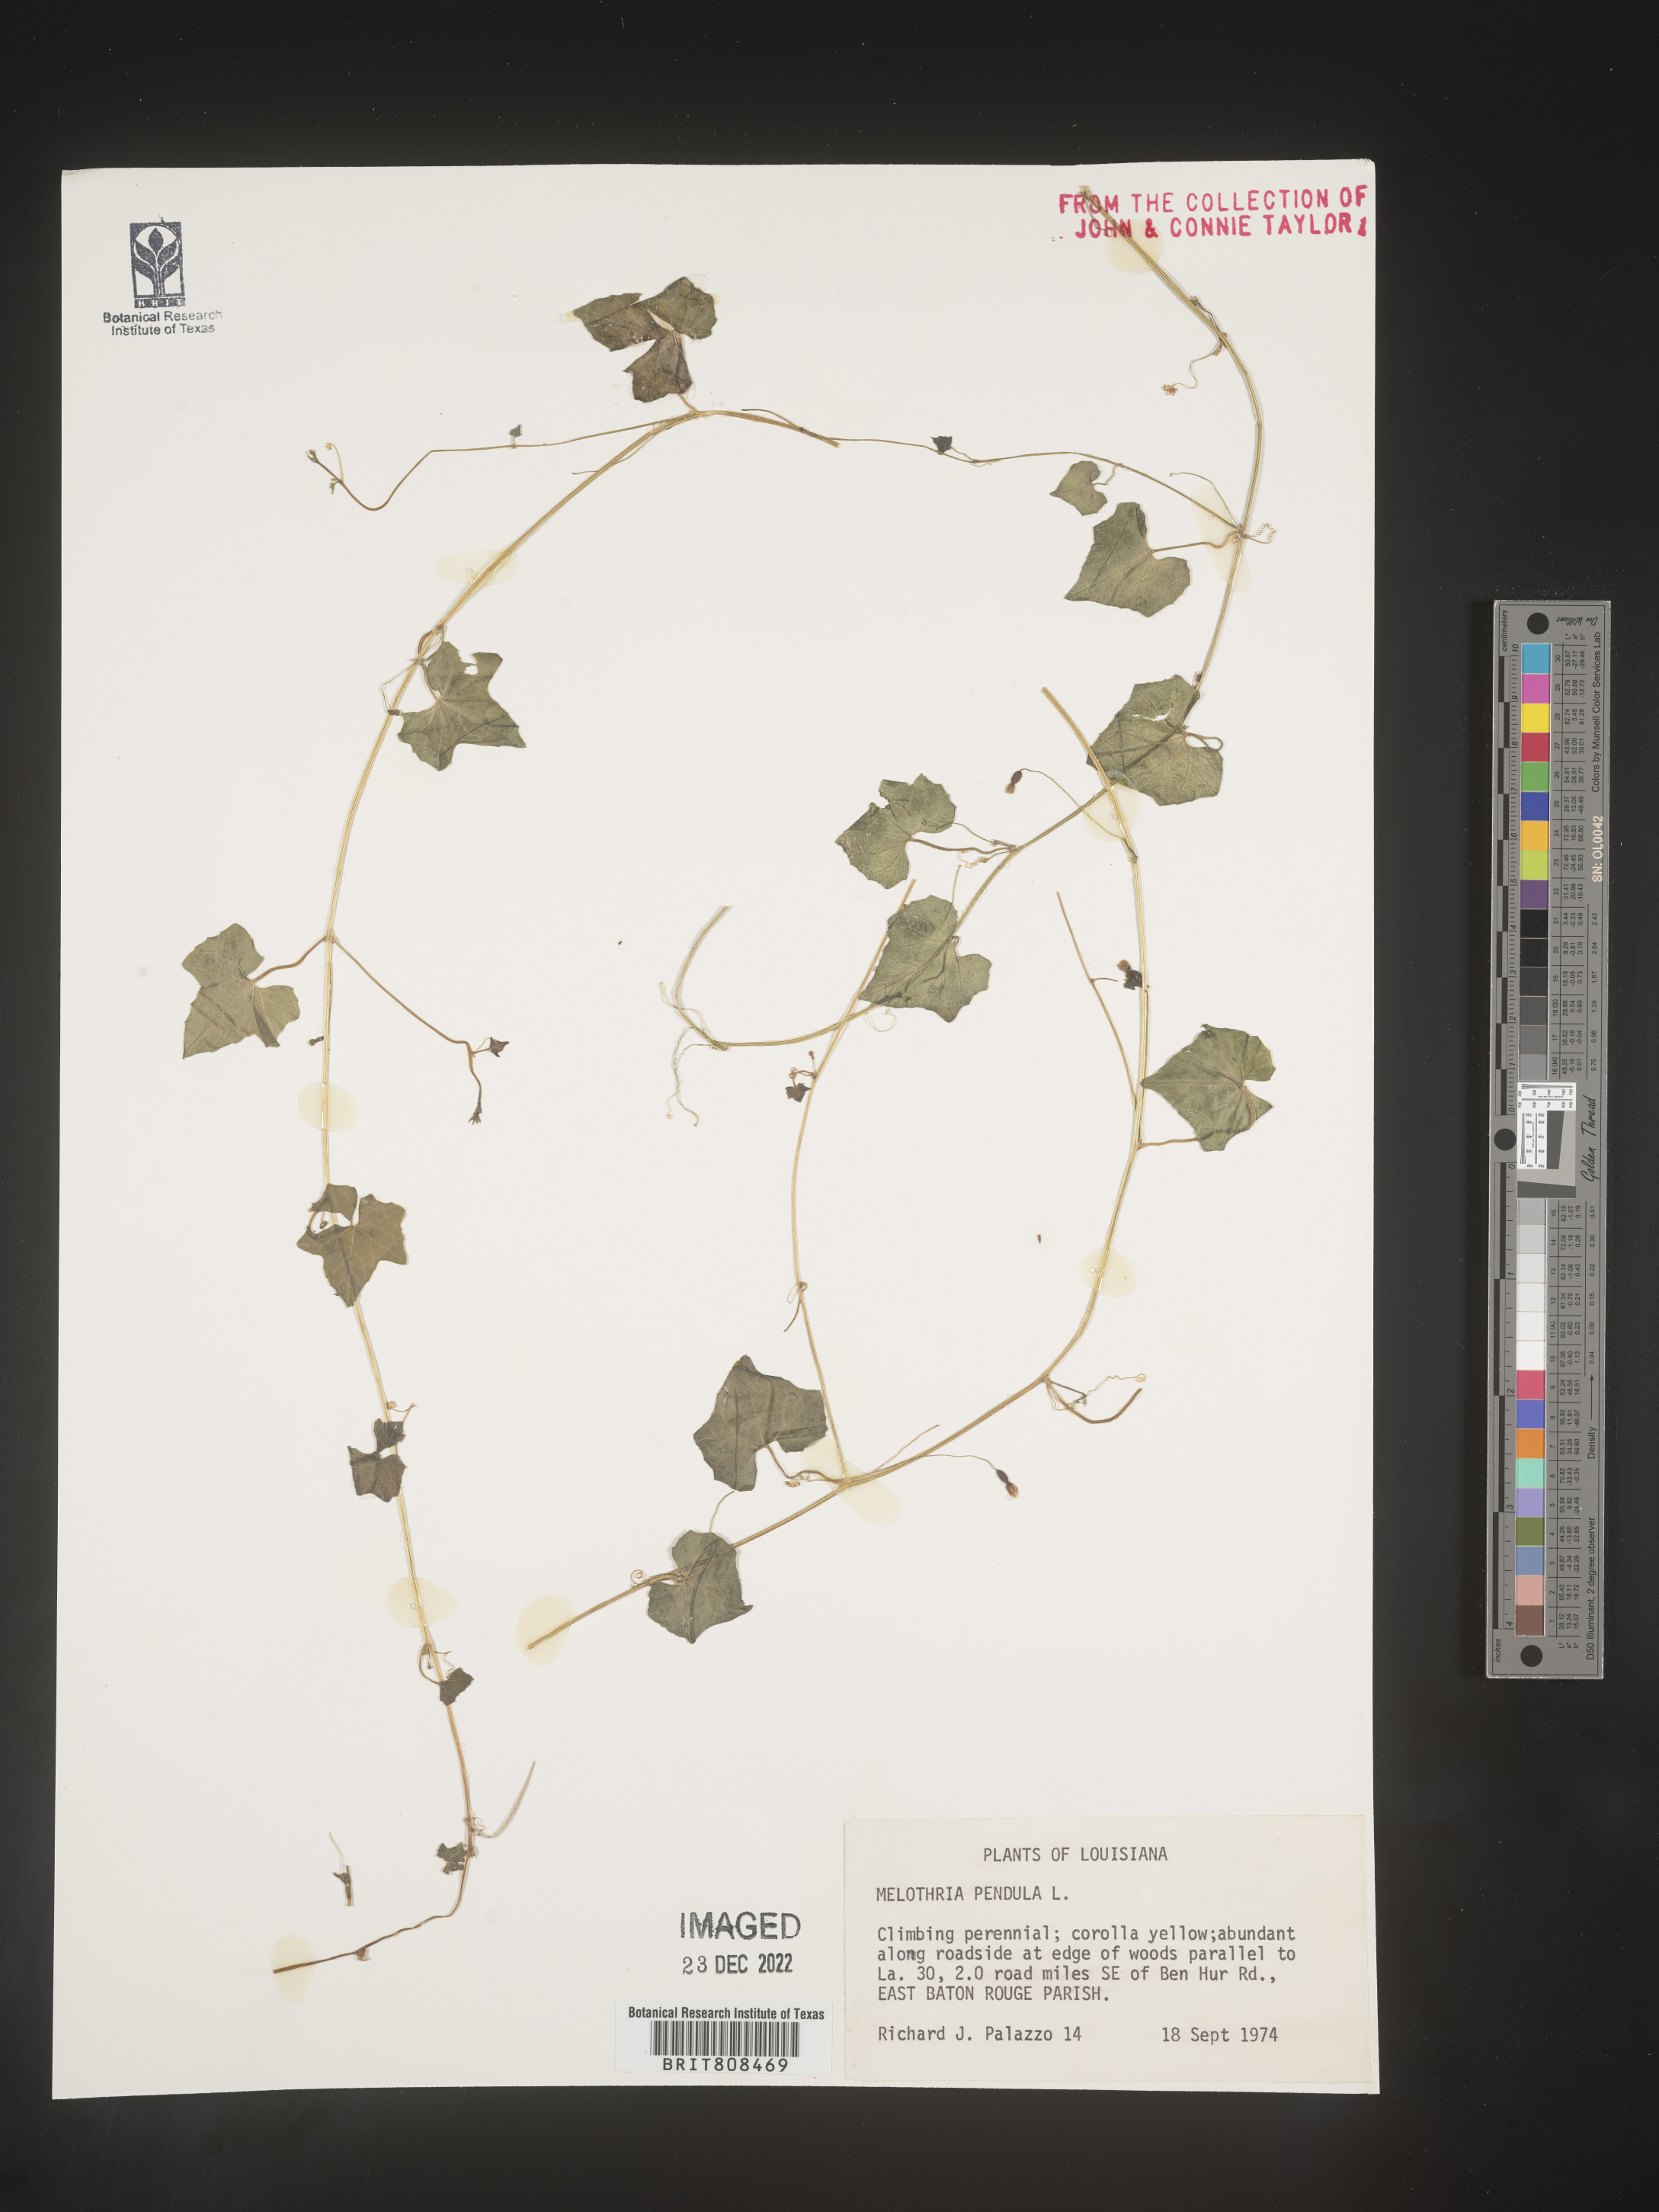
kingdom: Plantae
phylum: Tracheophyta
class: Magnoliopsida
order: Cucurbitales
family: Cucurbitaceae
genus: Melothria
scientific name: Melothria pendula
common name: Creeping-cucumber
